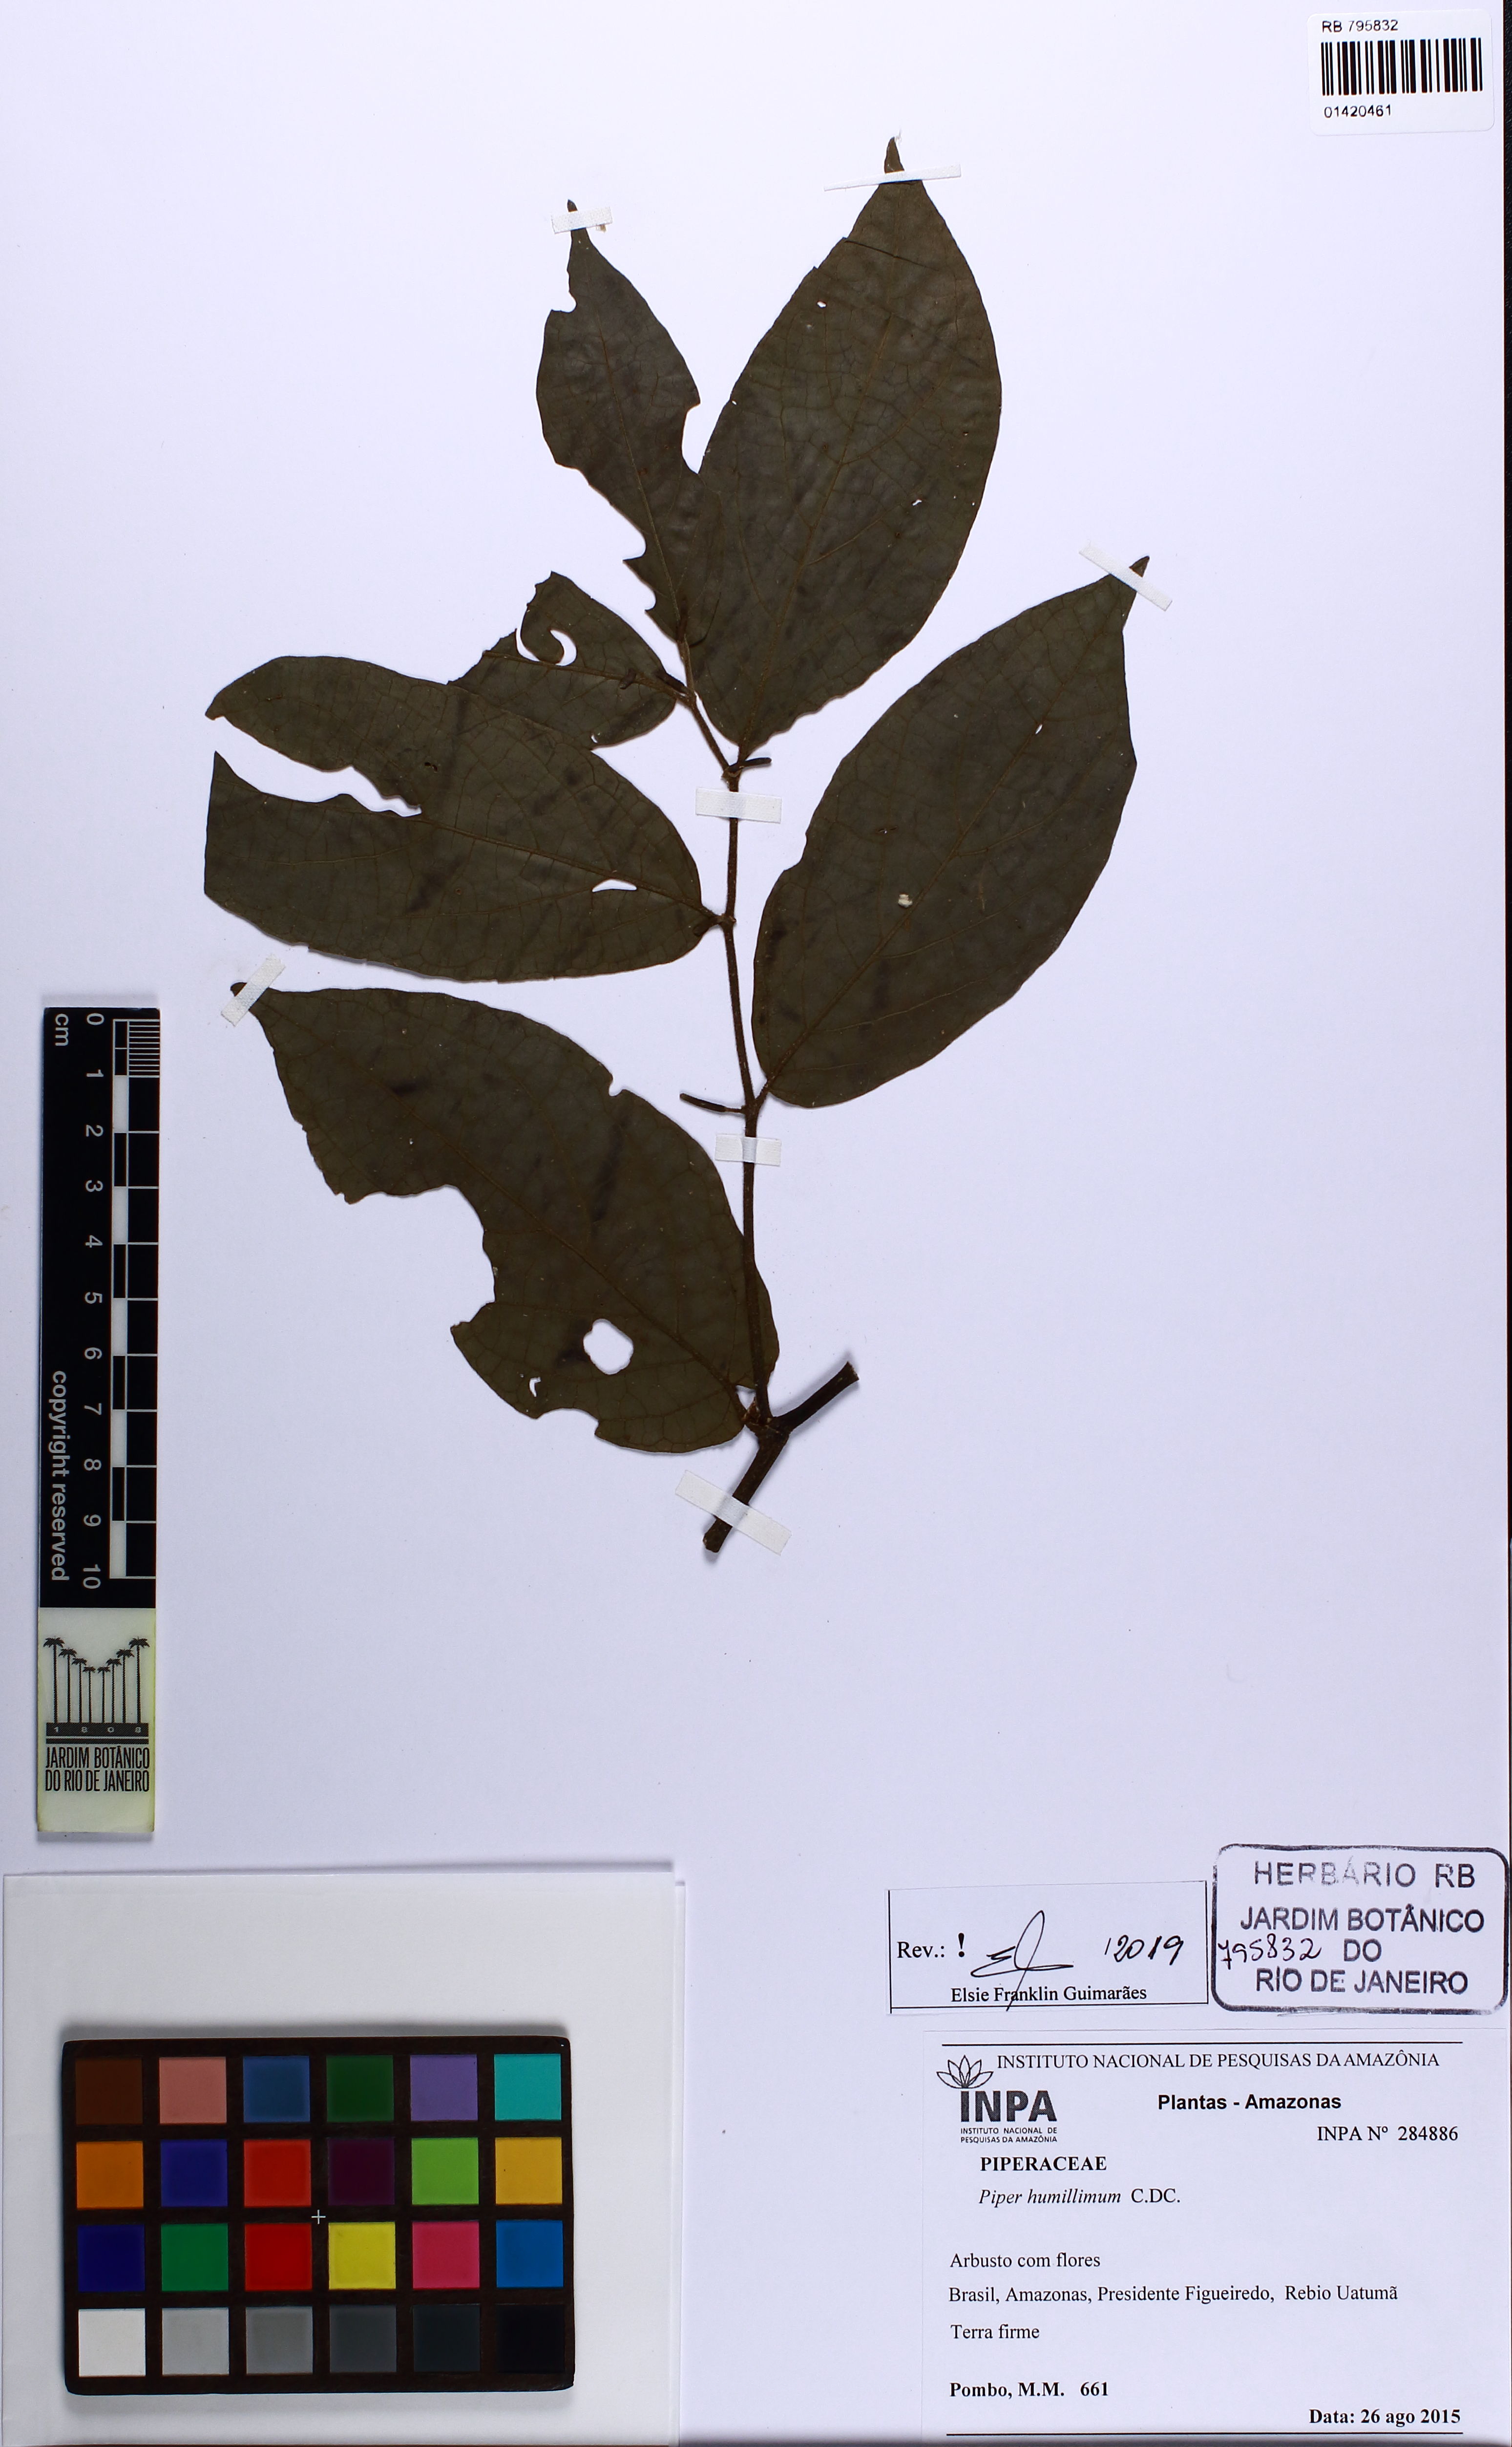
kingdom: Plantae
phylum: Tracheophyta
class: Magnoliopsida
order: Piperales
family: Piperaceae
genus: Piper
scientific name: Piper humillimum
